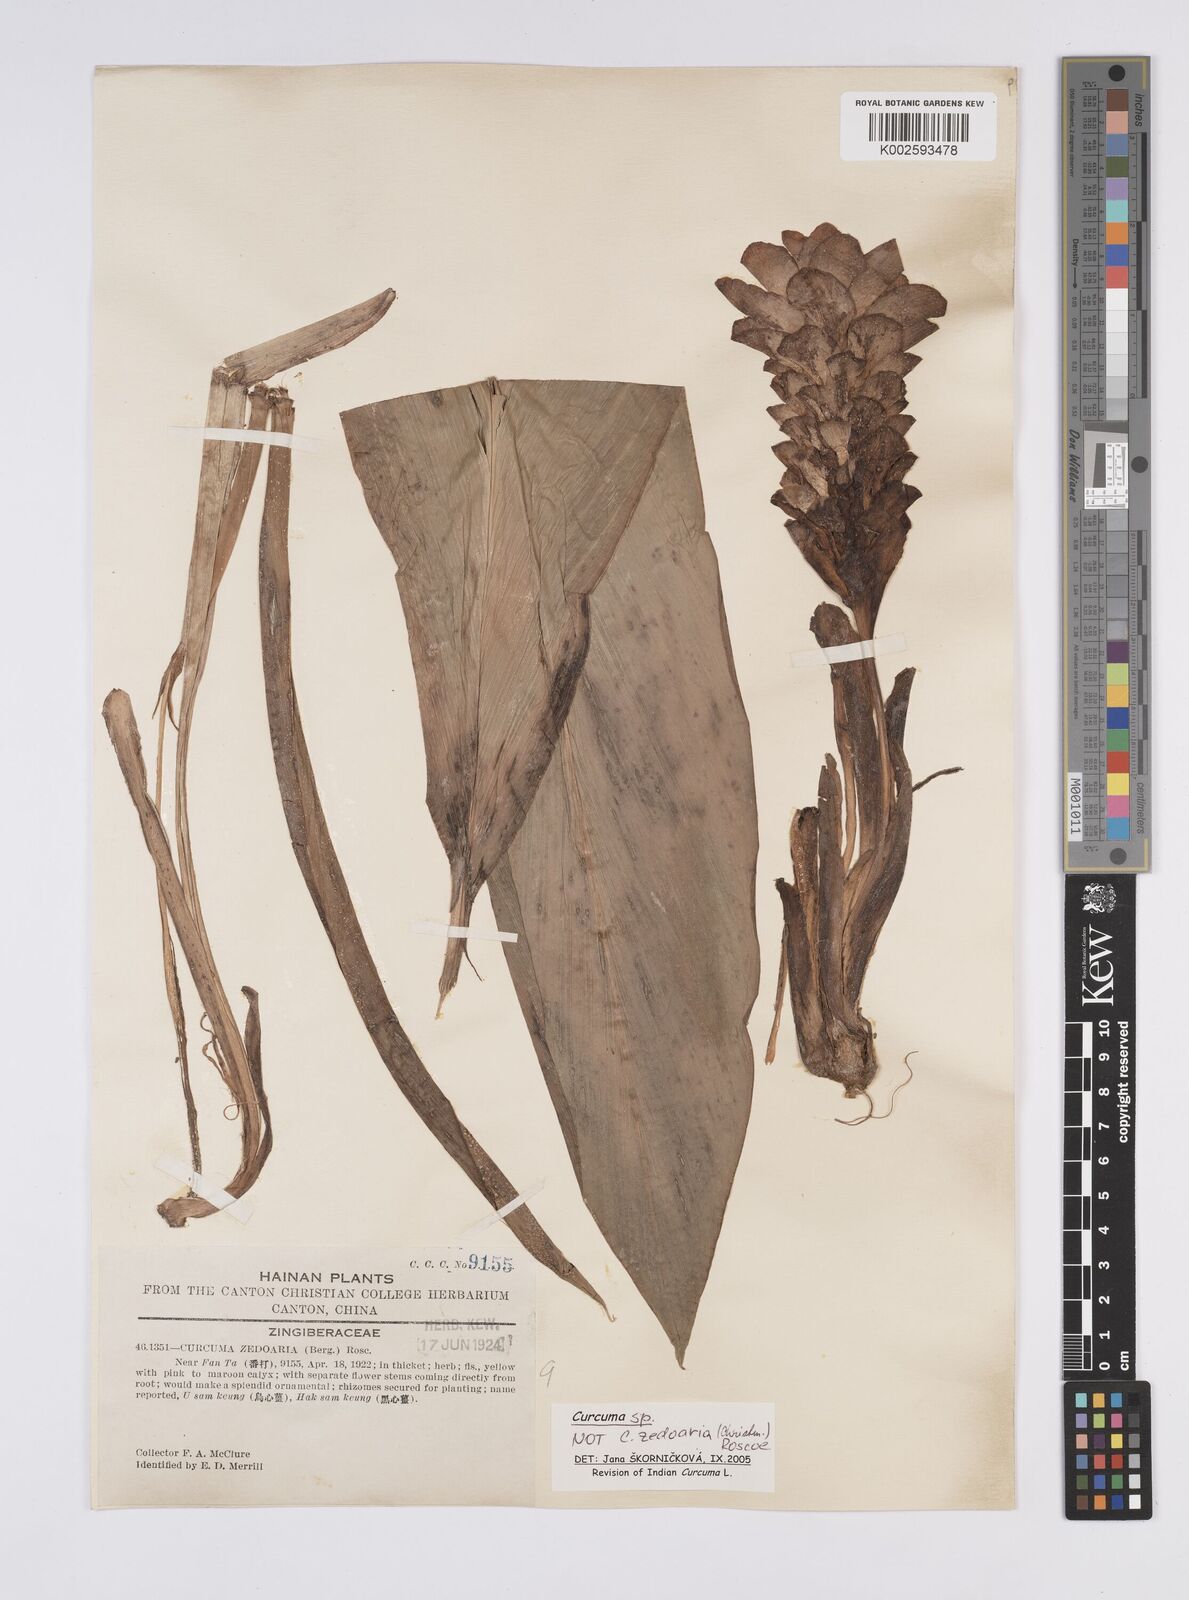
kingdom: Plantae
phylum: Tracheophyta
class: Liliopsida
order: Zingiberales
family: Zingiberaceae
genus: Curcuma
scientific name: Curcuma zedoaria
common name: Zedoary
